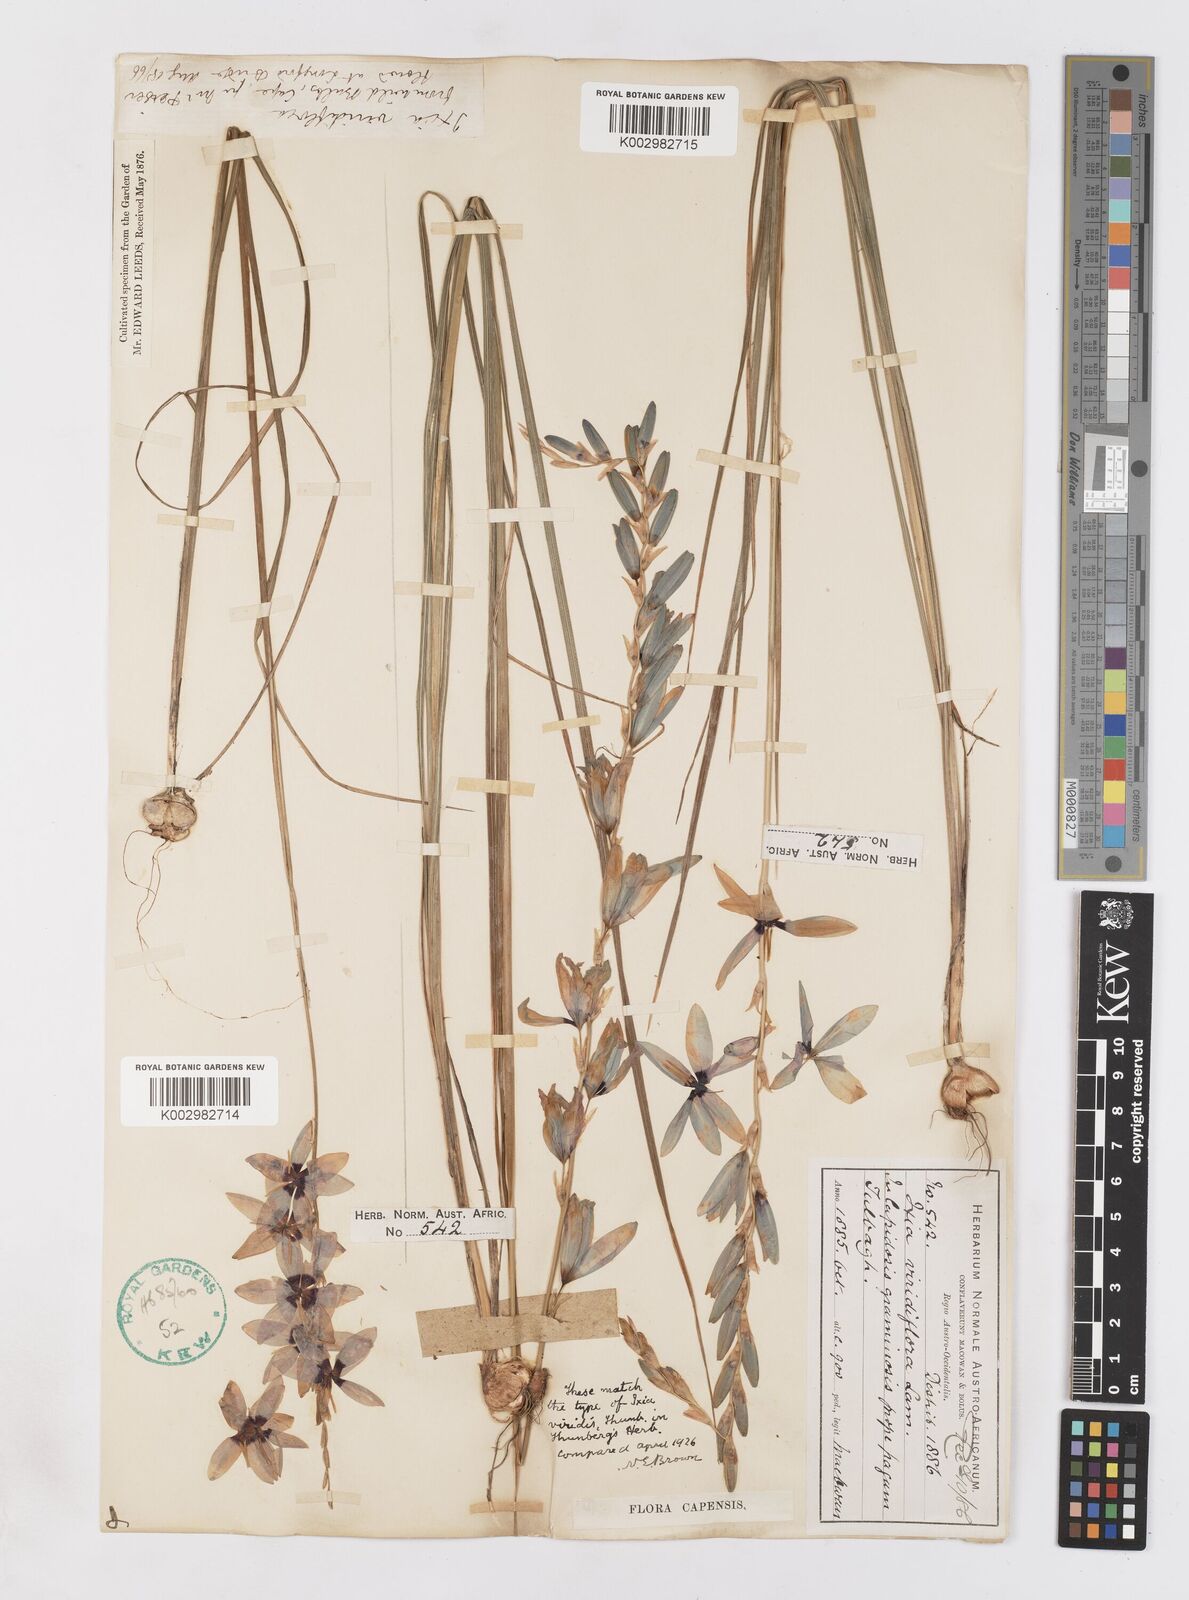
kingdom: Plantae
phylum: Tracheophyta
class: Liliopsida
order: Asparagales
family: Iridaceae
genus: Ixia
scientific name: Ixia viridiflora
